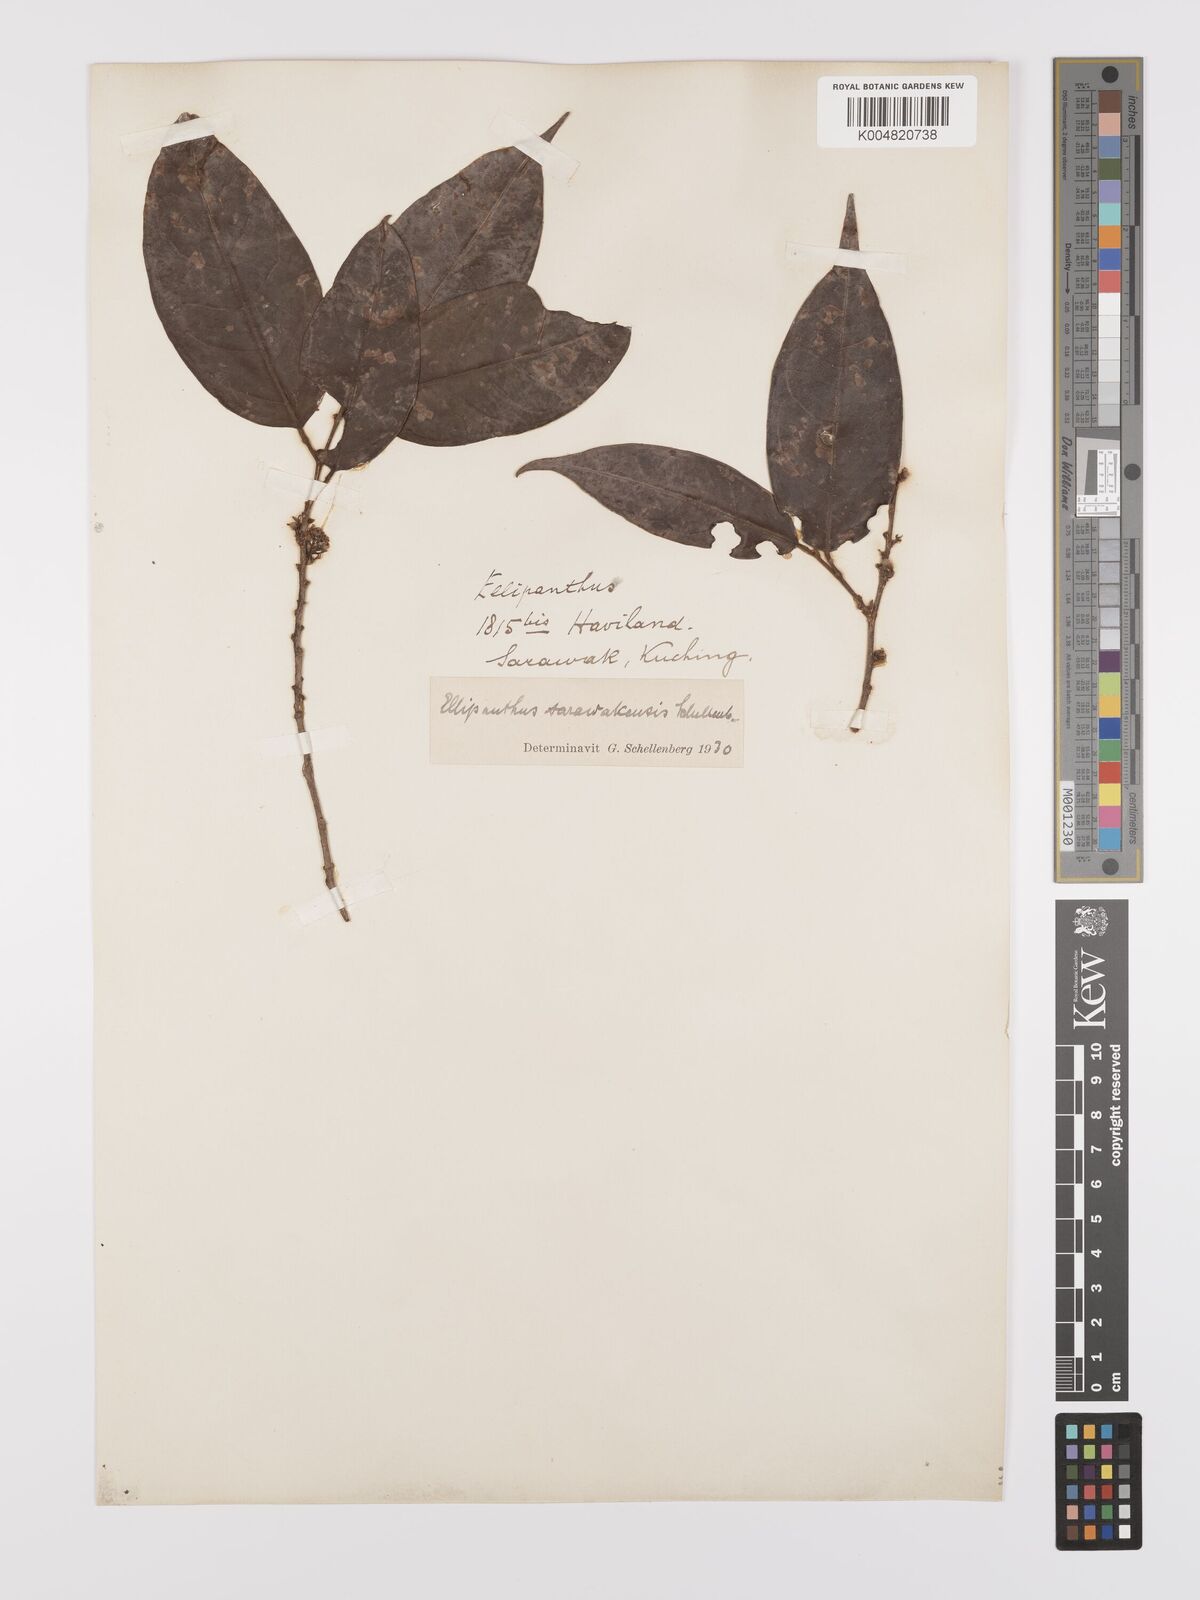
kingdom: Plantae
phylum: Tracheophyta
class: Magnoliopsida
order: Oxalidales
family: Connaraceae
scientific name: Connaraceae
